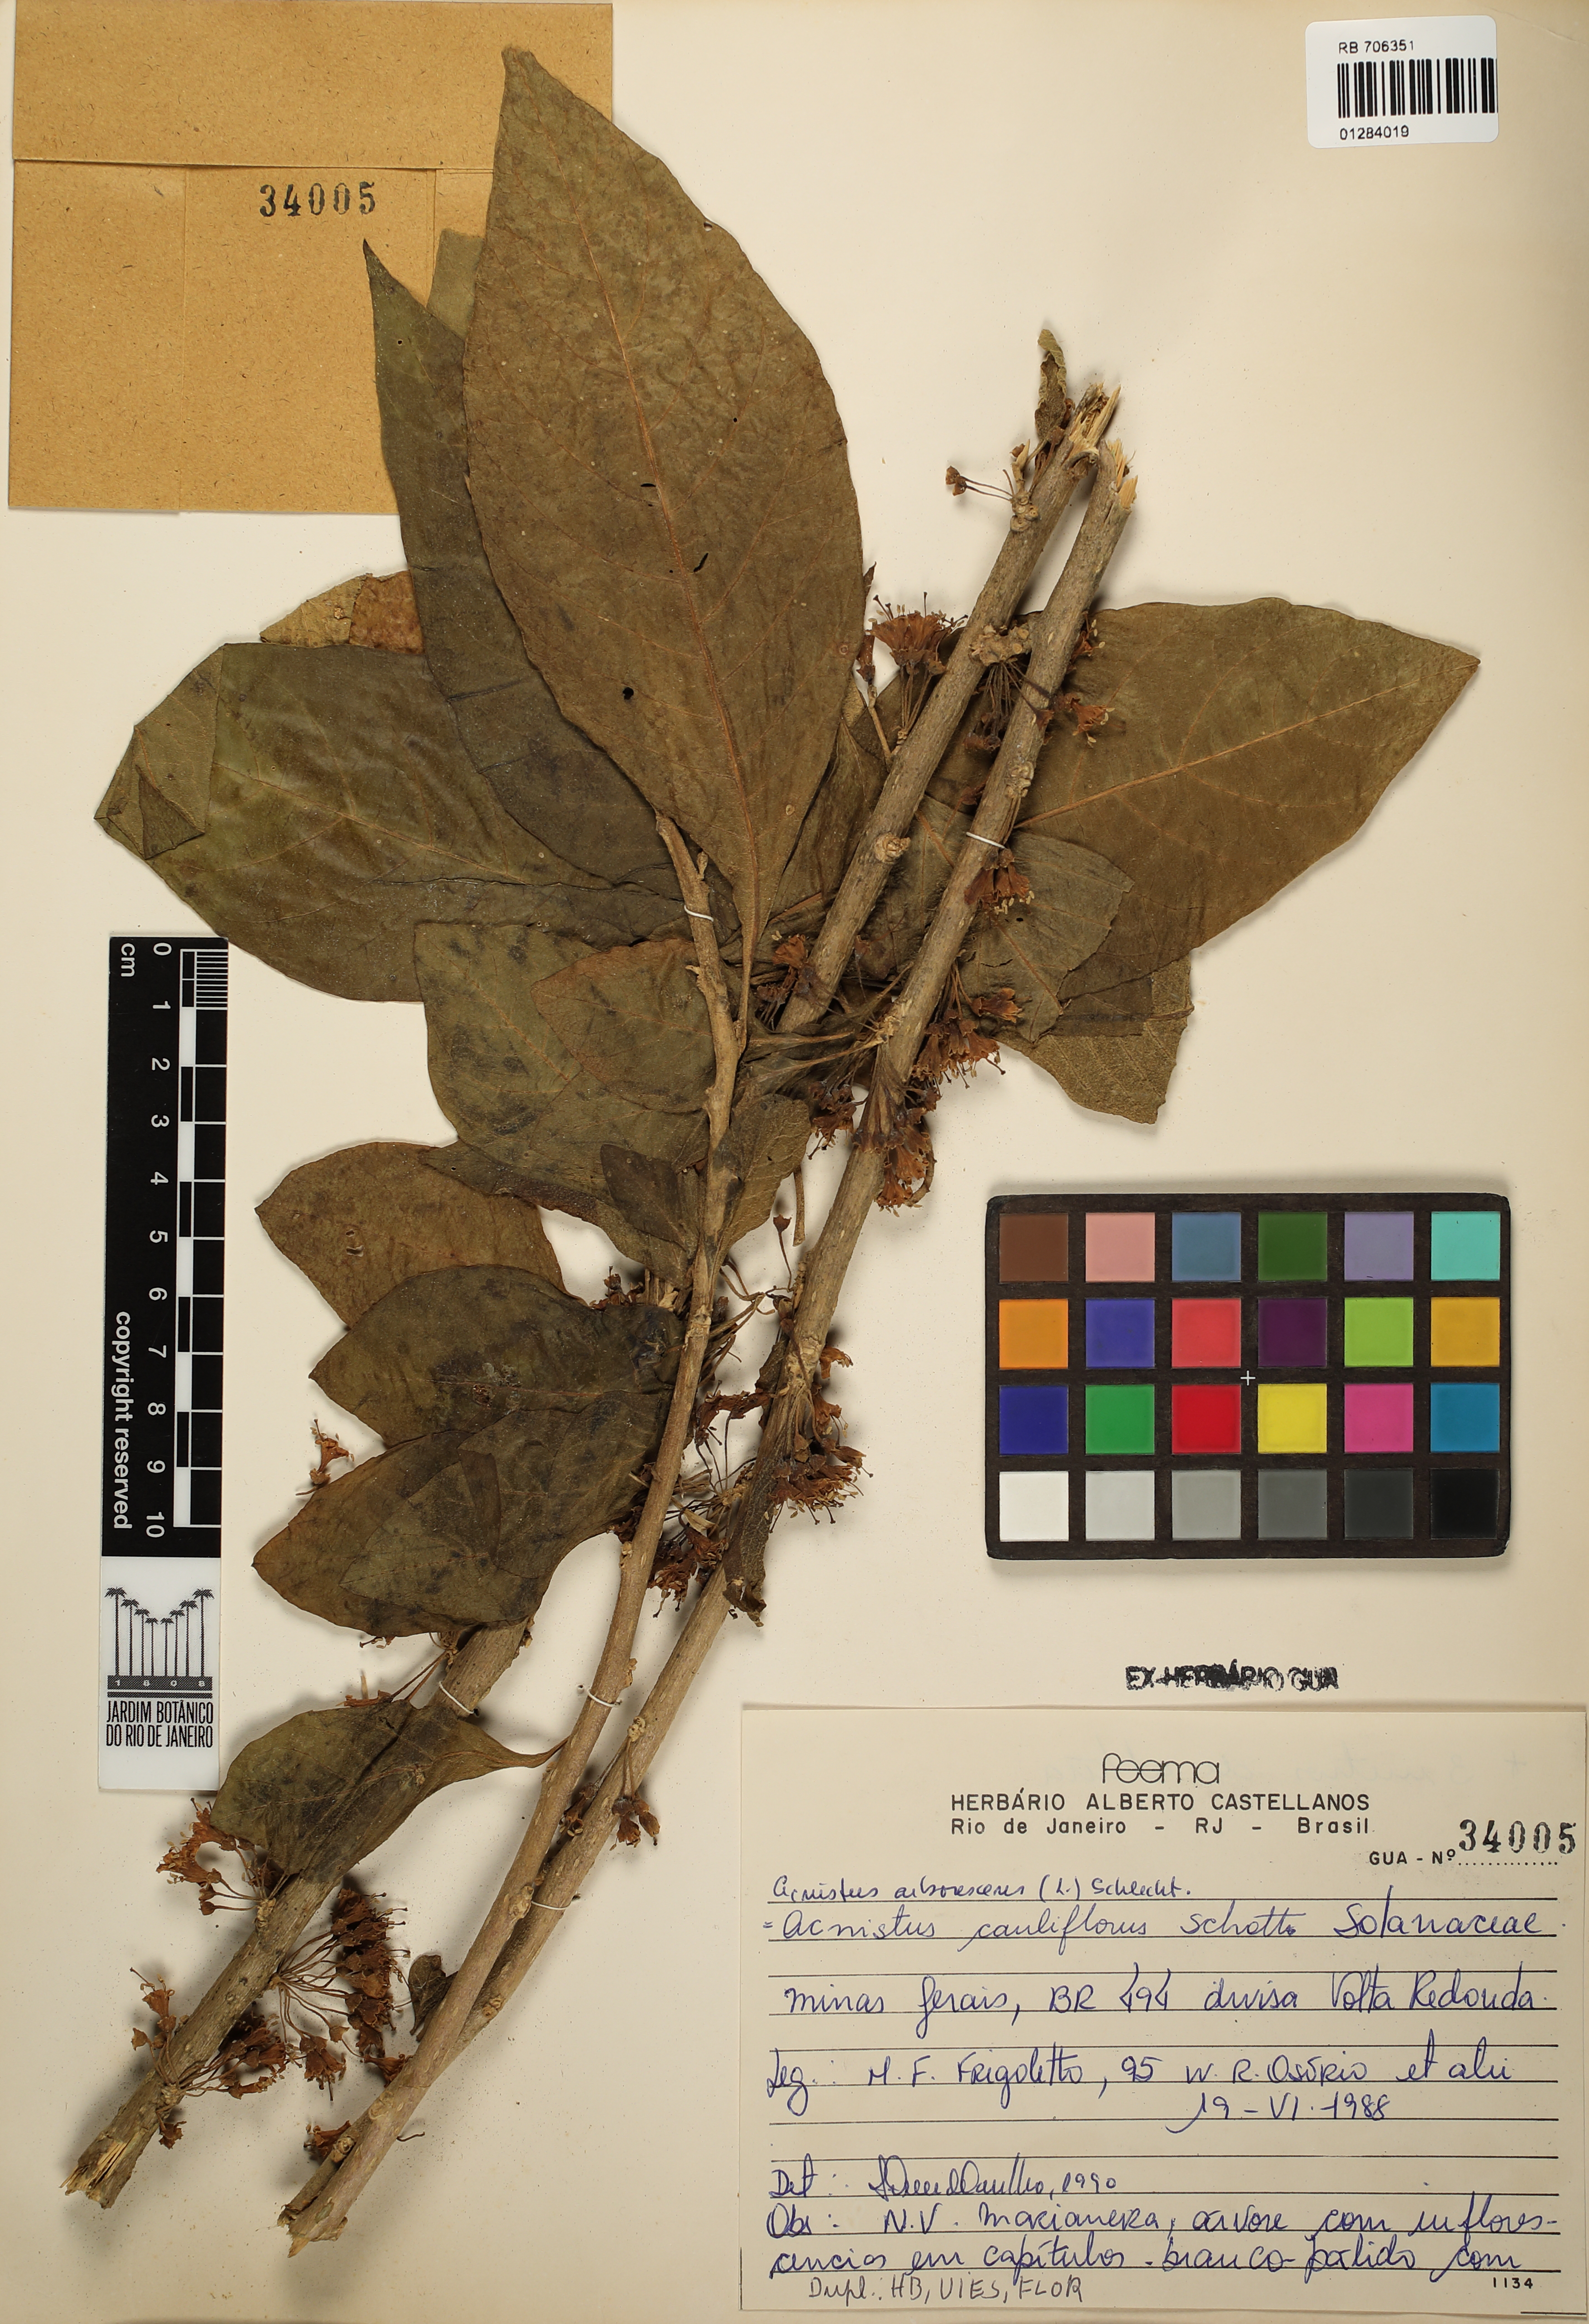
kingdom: Plantae
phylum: Tracheophyta
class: Magnoliopsida
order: Solanales
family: Solanaceae
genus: Iochroma
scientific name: Iochroma arborescens
